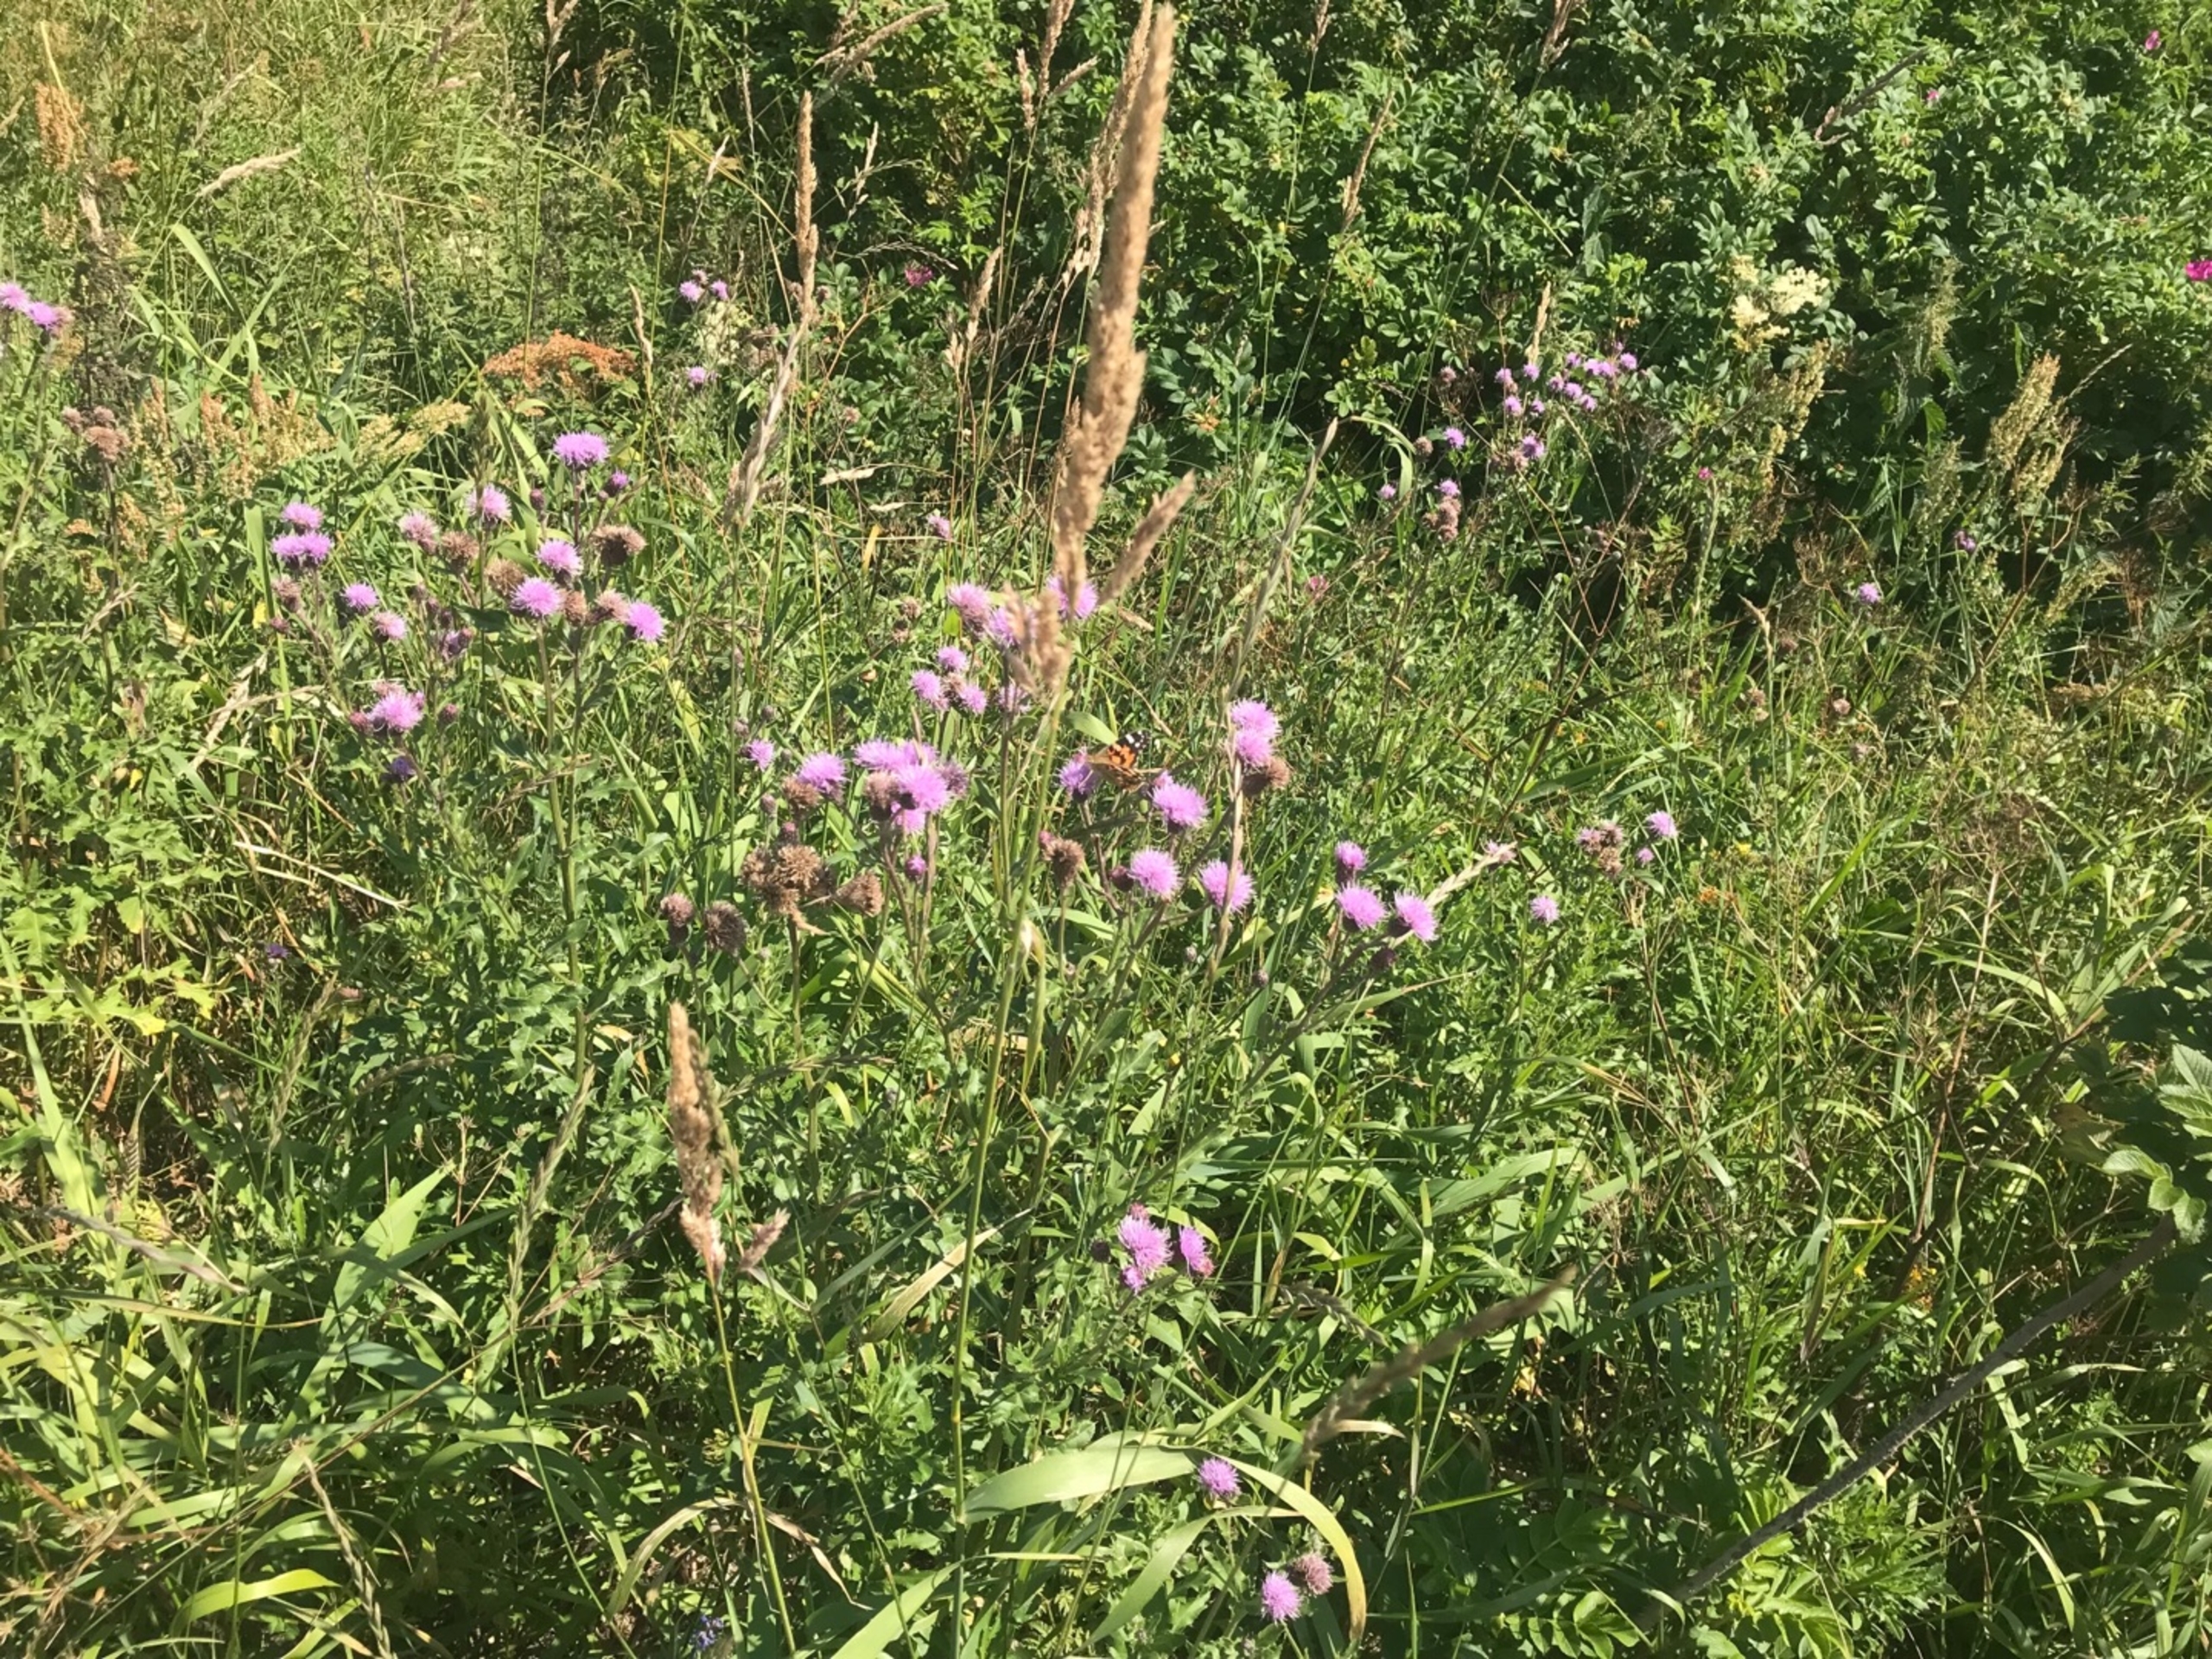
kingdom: Animalia
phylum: Arthropoda
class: Insecta
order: Lepidoptera
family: Nymphalidae
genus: Vanessa
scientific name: Vanessa cardui
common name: Tidselsommerfugl
